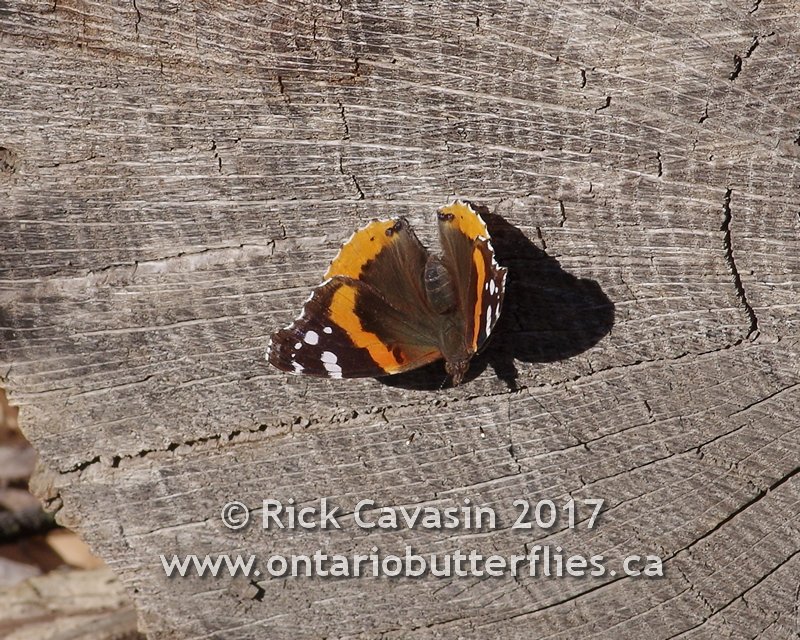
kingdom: Animalia
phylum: Arthropoda
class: Insecta
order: Lepidoptera
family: Nymphalidae
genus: Vanessa
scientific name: Vanessa atalanta
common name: Red Admiral
